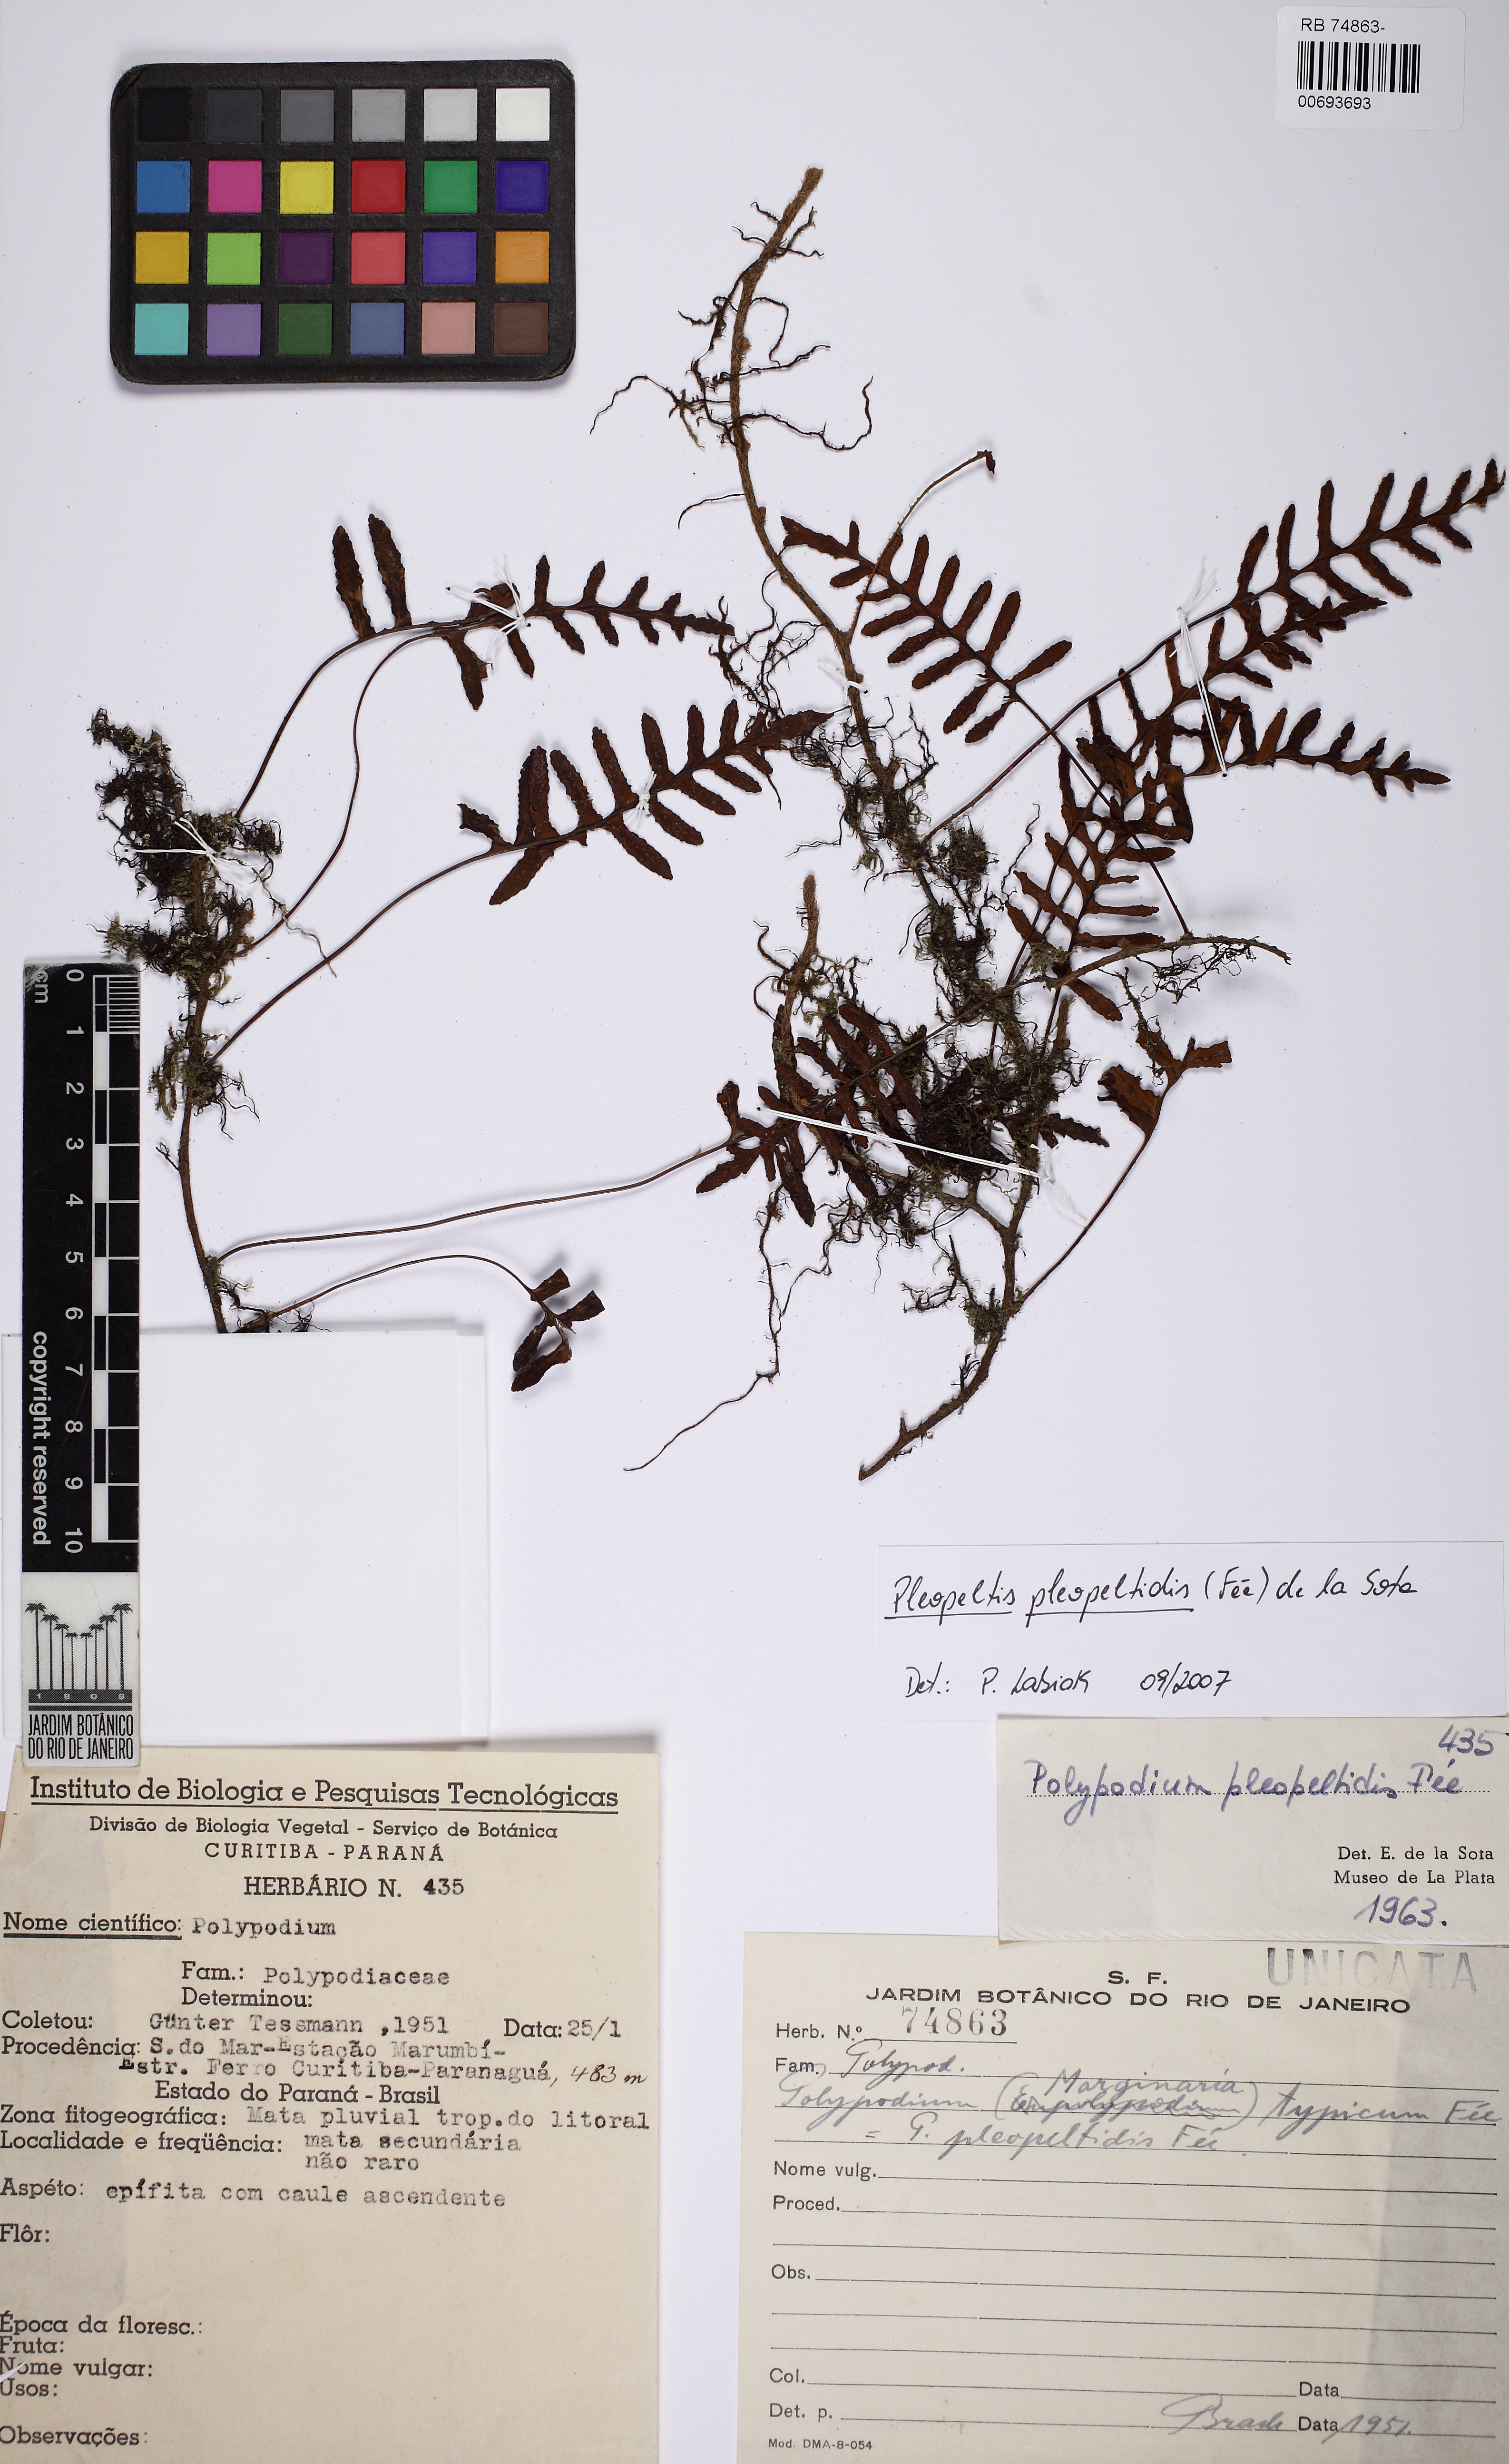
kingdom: Plantae
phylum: Tracheophyta
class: Polypodiopsida
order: Polypodiales
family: Polypodiaceae
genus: Pleopeltis
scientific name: Pleopeltis pleopeltidis
